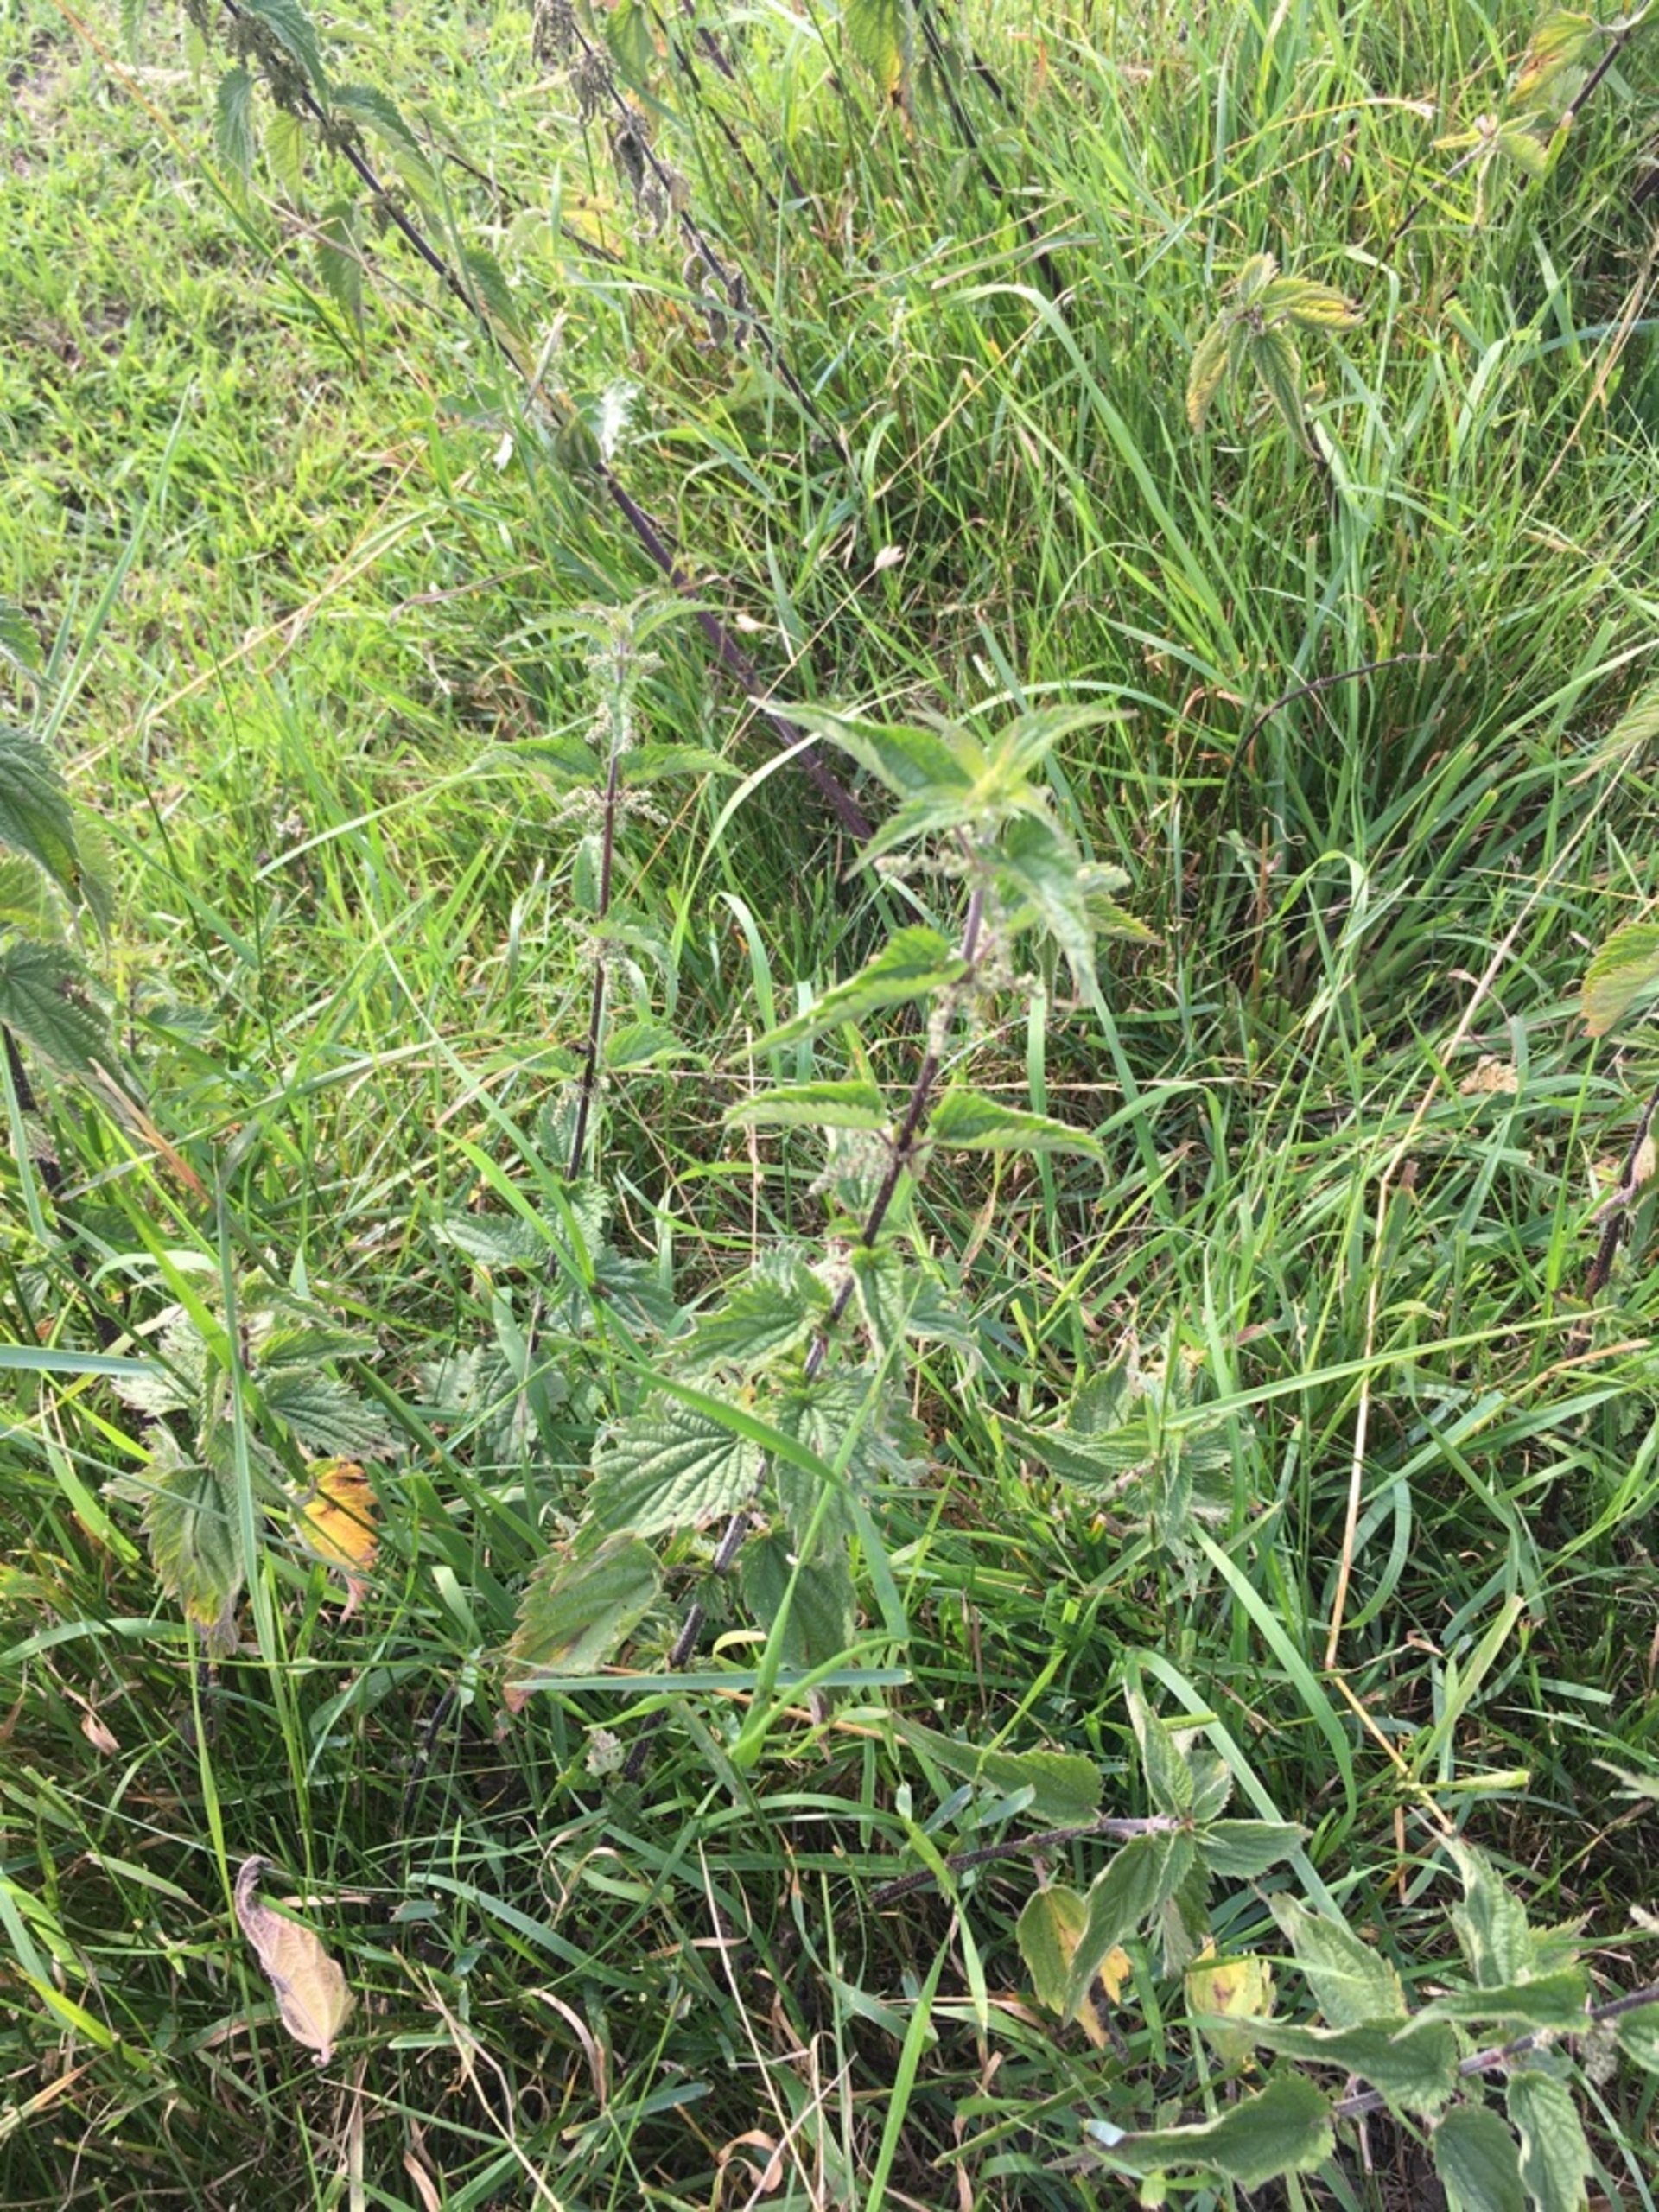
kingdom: Plantae
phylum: Tracheophyta
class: Magnoliopsida
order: Rosales
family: Urticaceae
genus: Urtica
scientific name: Urtica dioica
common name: Stor nælde
